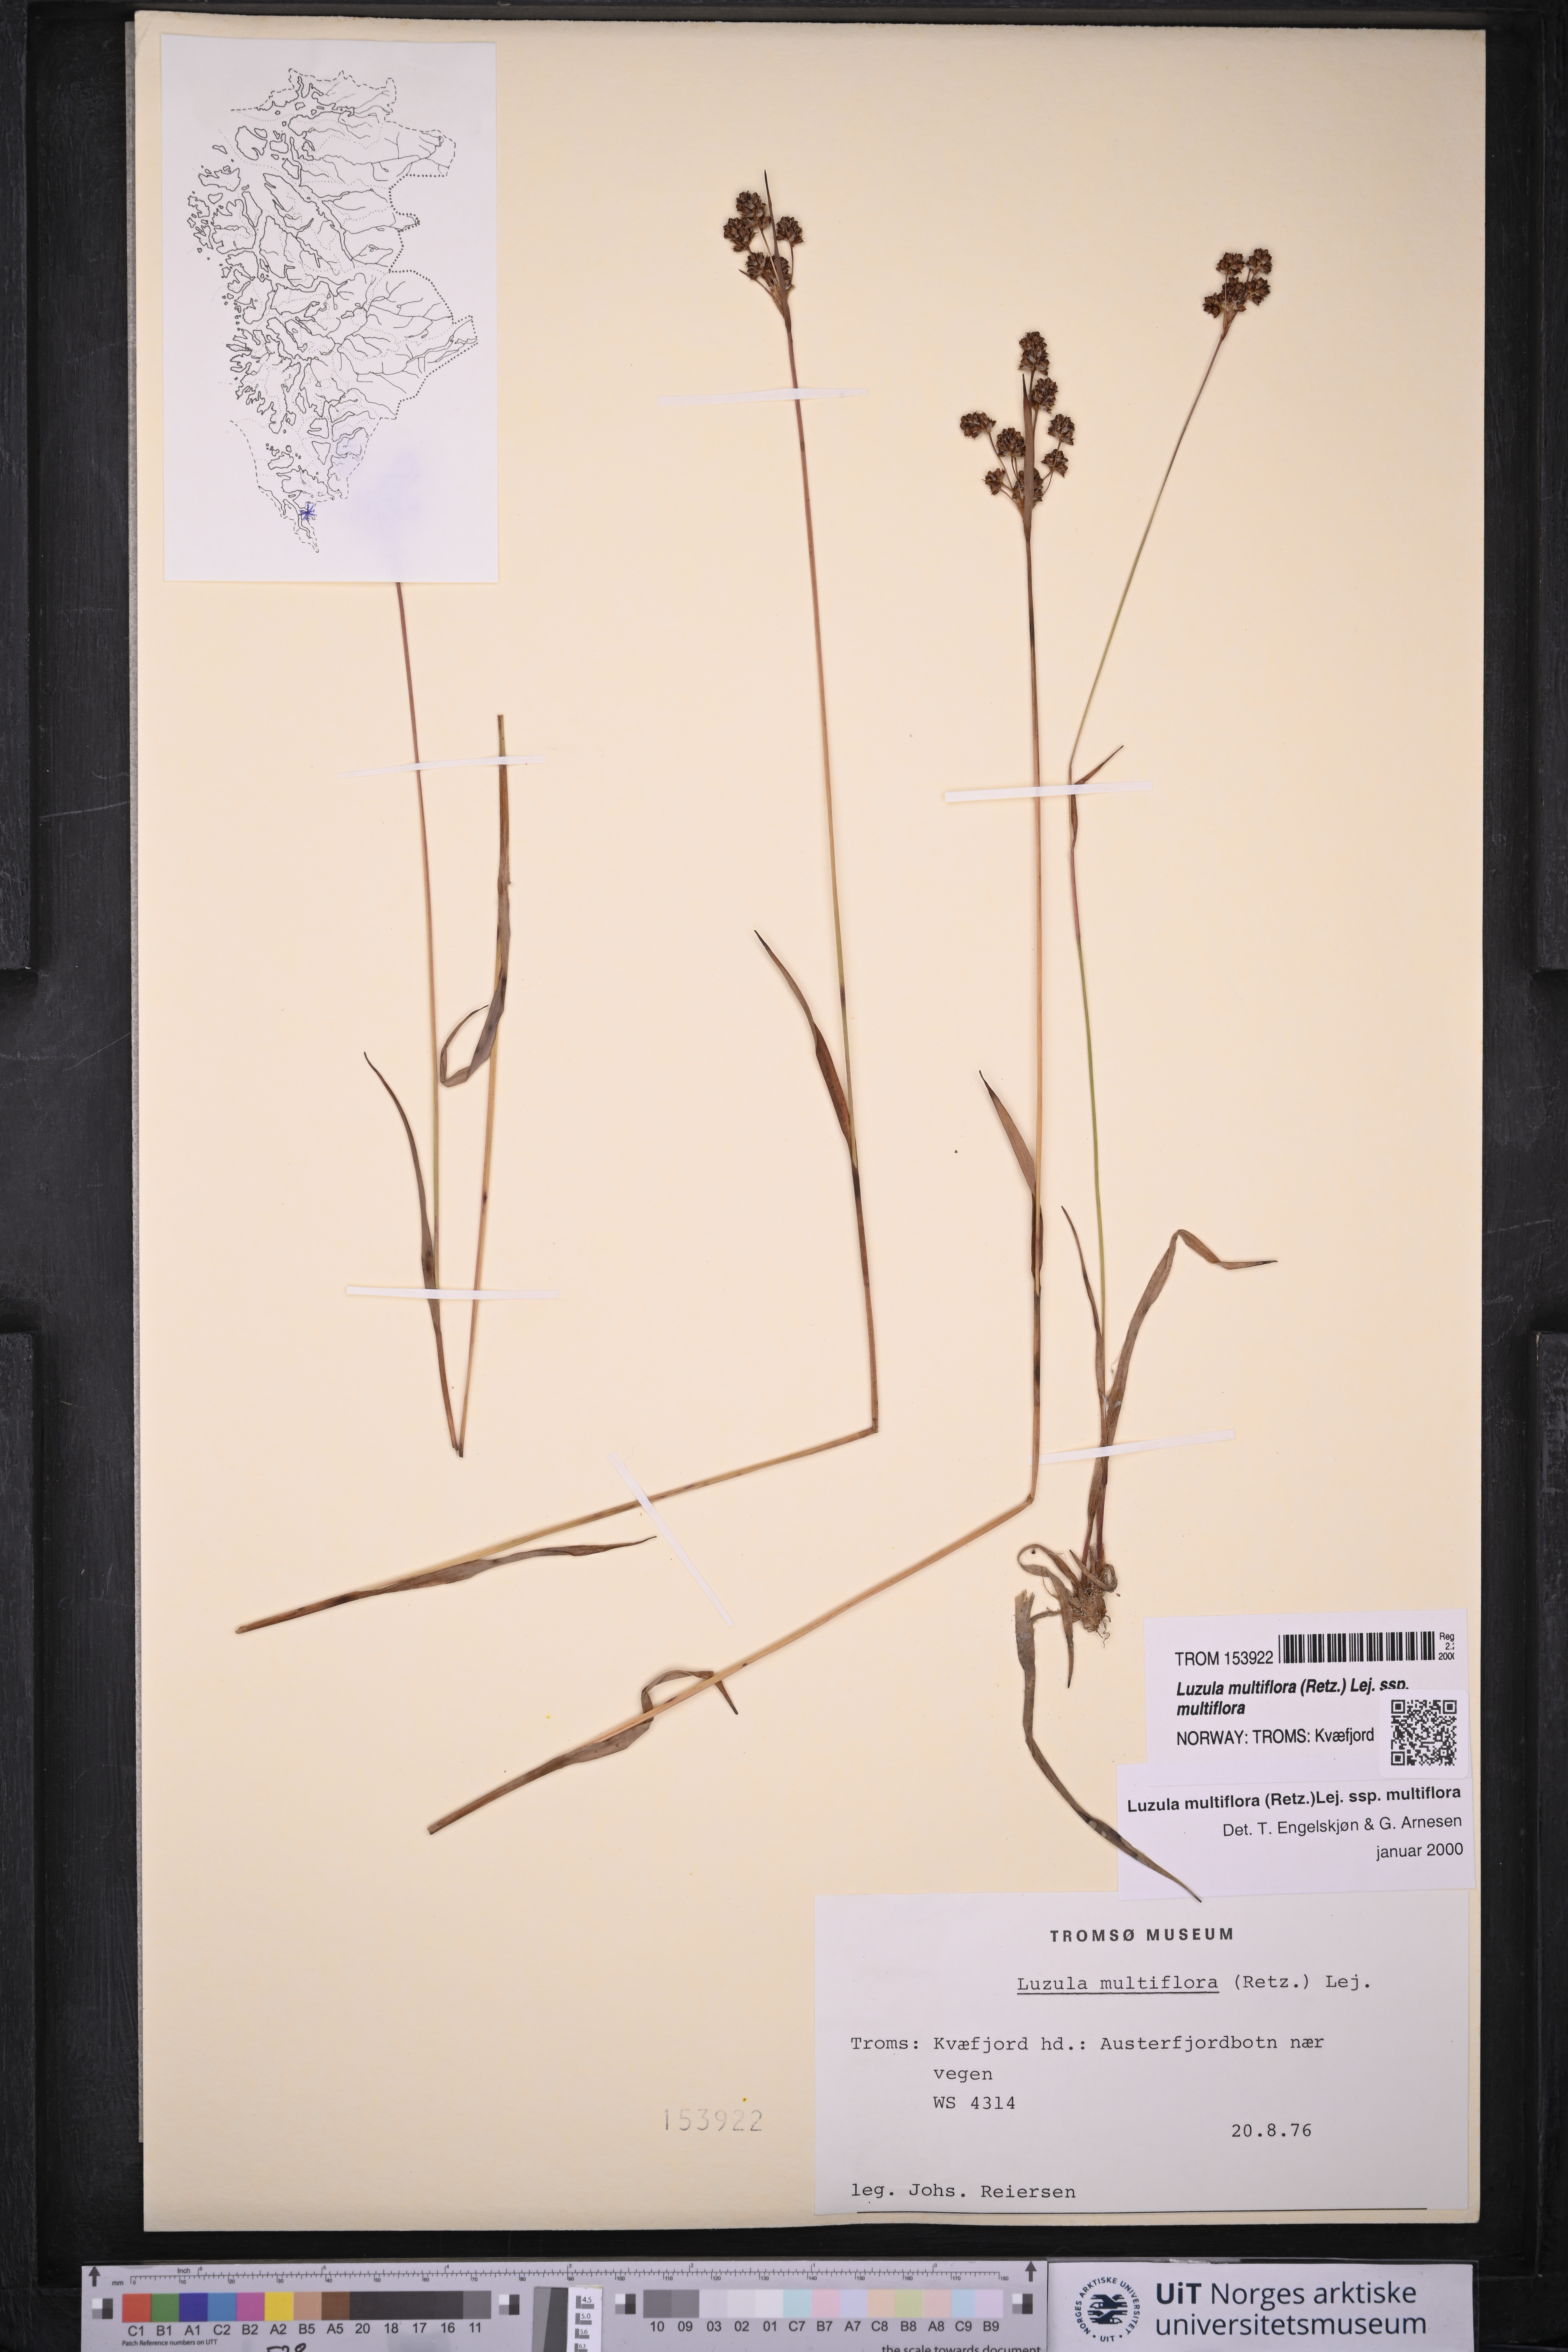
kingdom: Plantae
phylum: Tracheophyta
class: Liliopsida
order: Poales
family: Juncaceae
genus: Luzula
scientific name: Luzula multiflora
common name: Heath wood-rush
